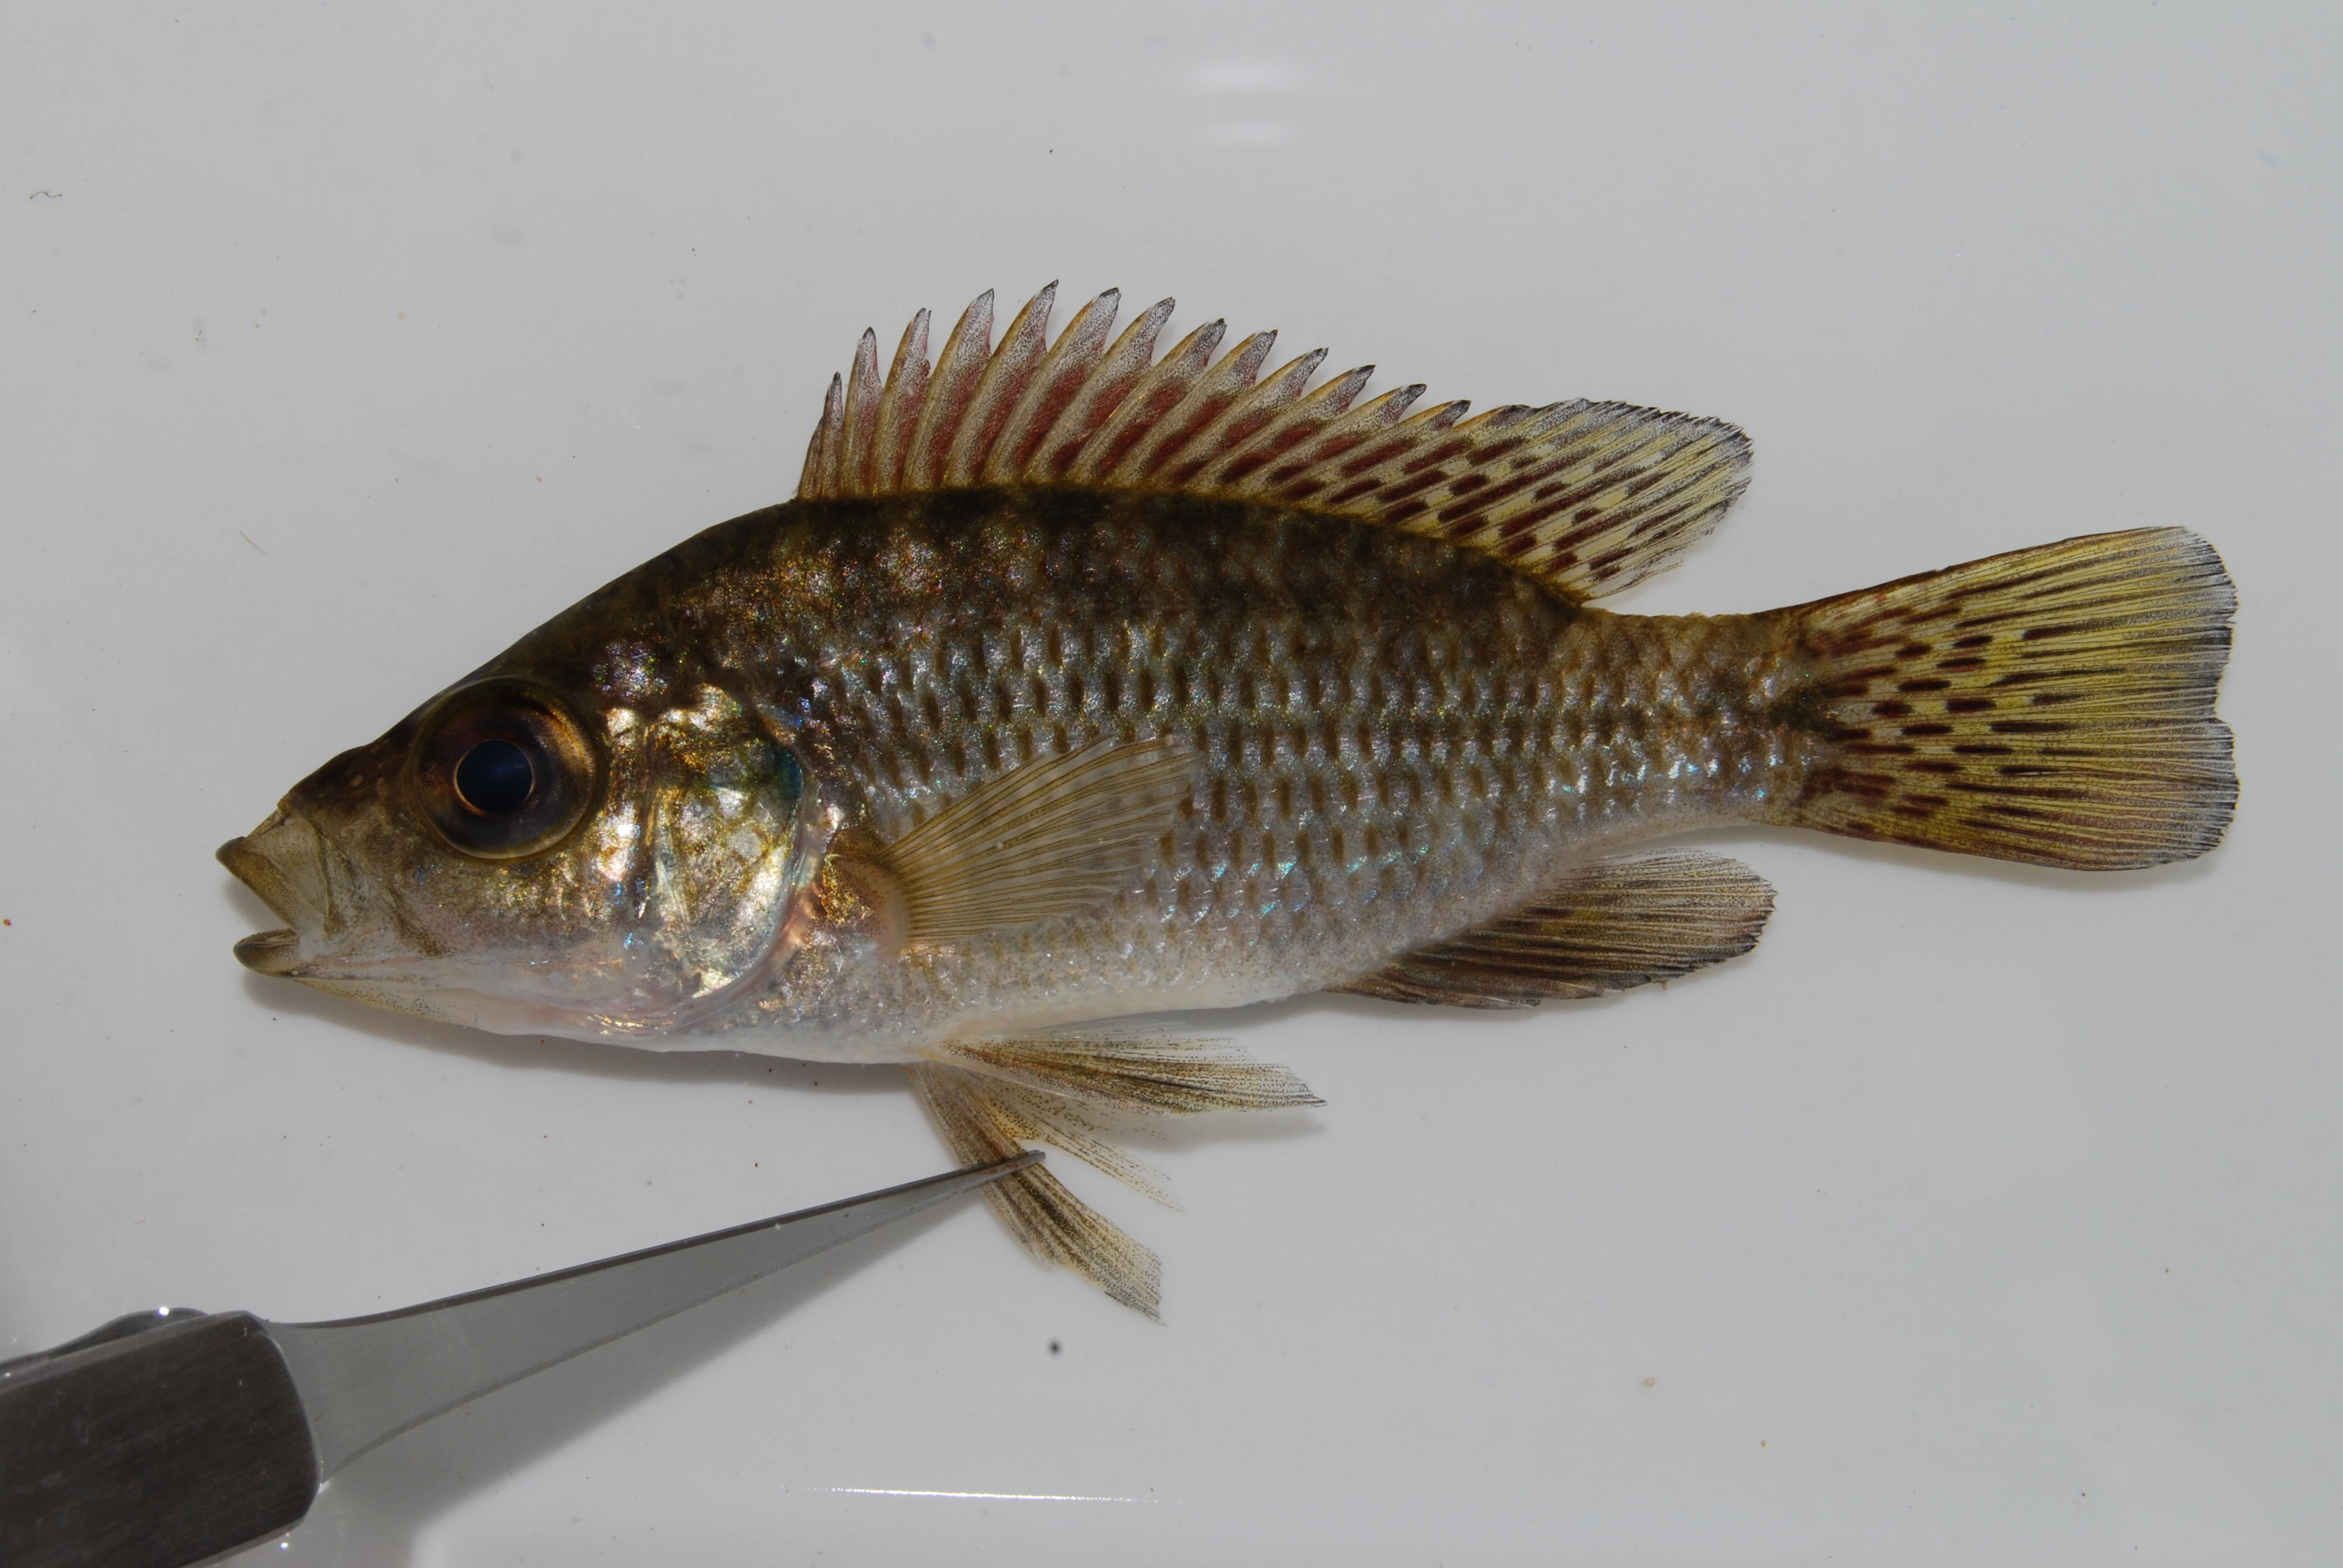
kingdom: Animalia
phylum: Chordata
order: Perciformes
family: Cichlidae
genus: Sargochromis
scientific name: Sargochromis
